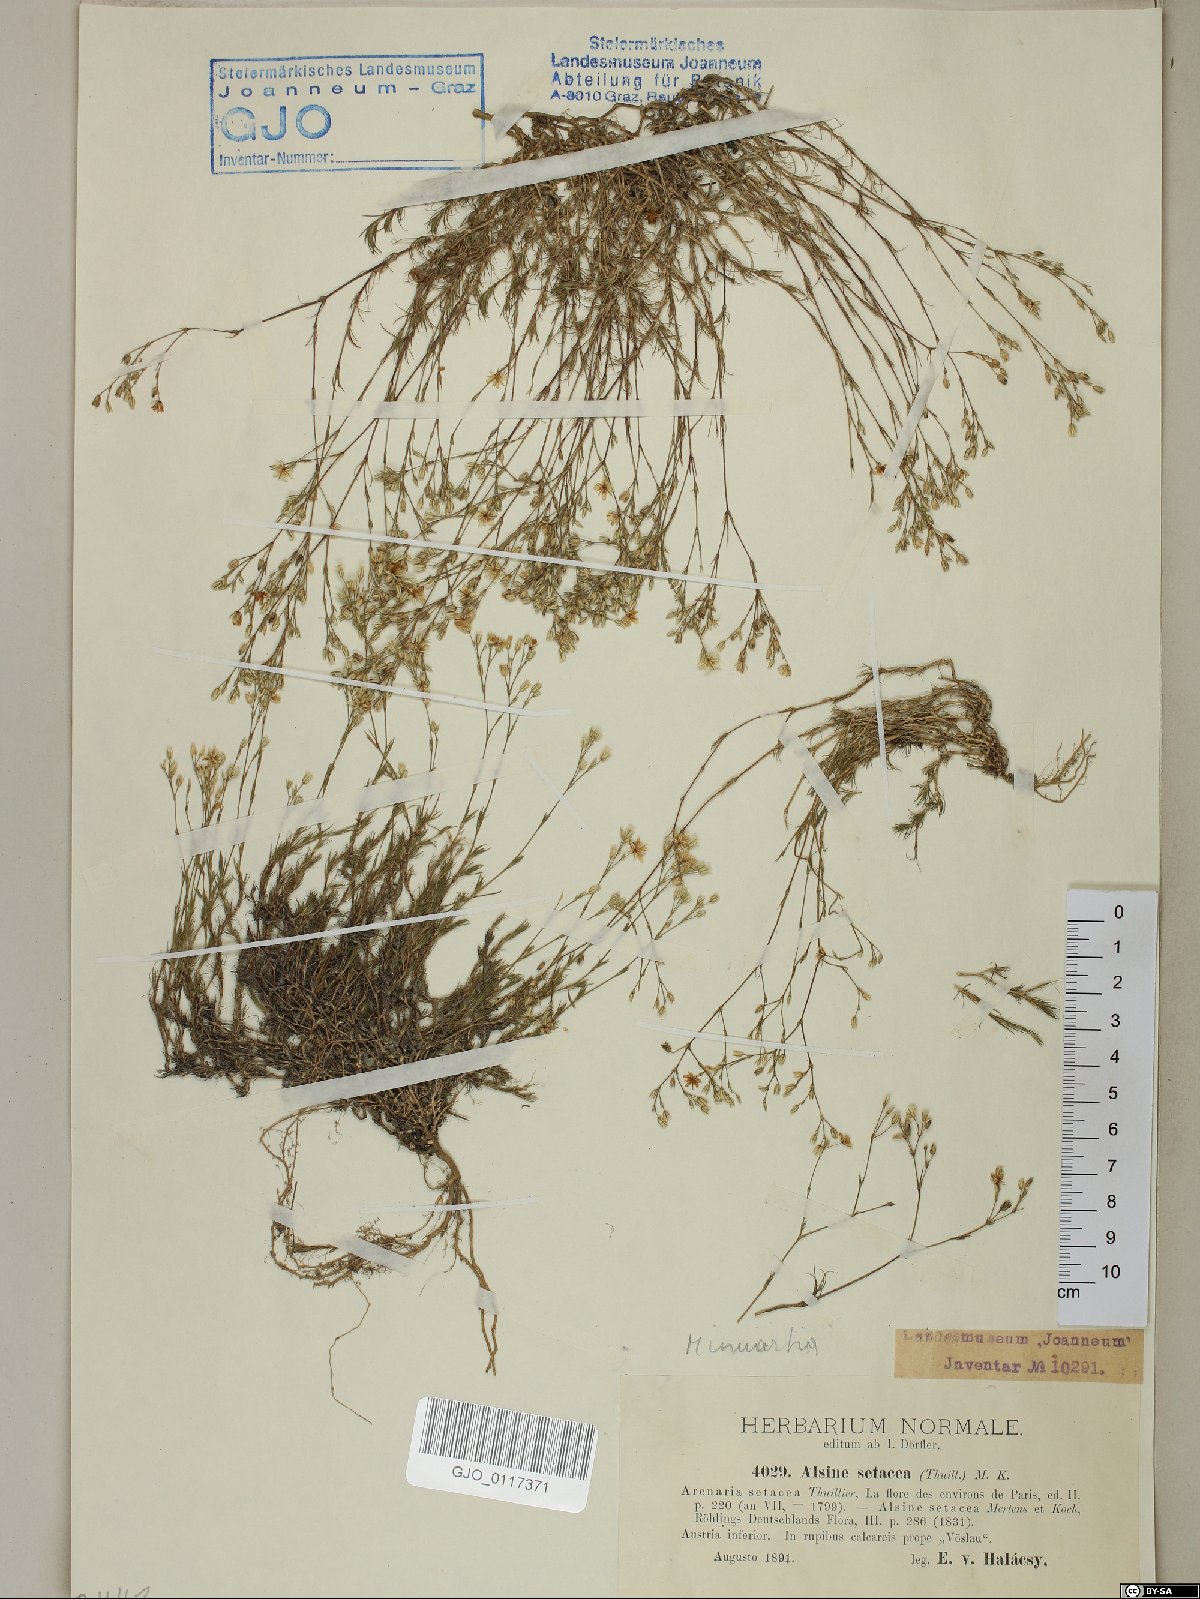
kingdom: Plantae
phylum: Tracheophyta
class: Magnoliopsida
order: Caryophyllales
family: Caryophyllaceae
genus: Minuartia
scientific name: Minuartia setacea
